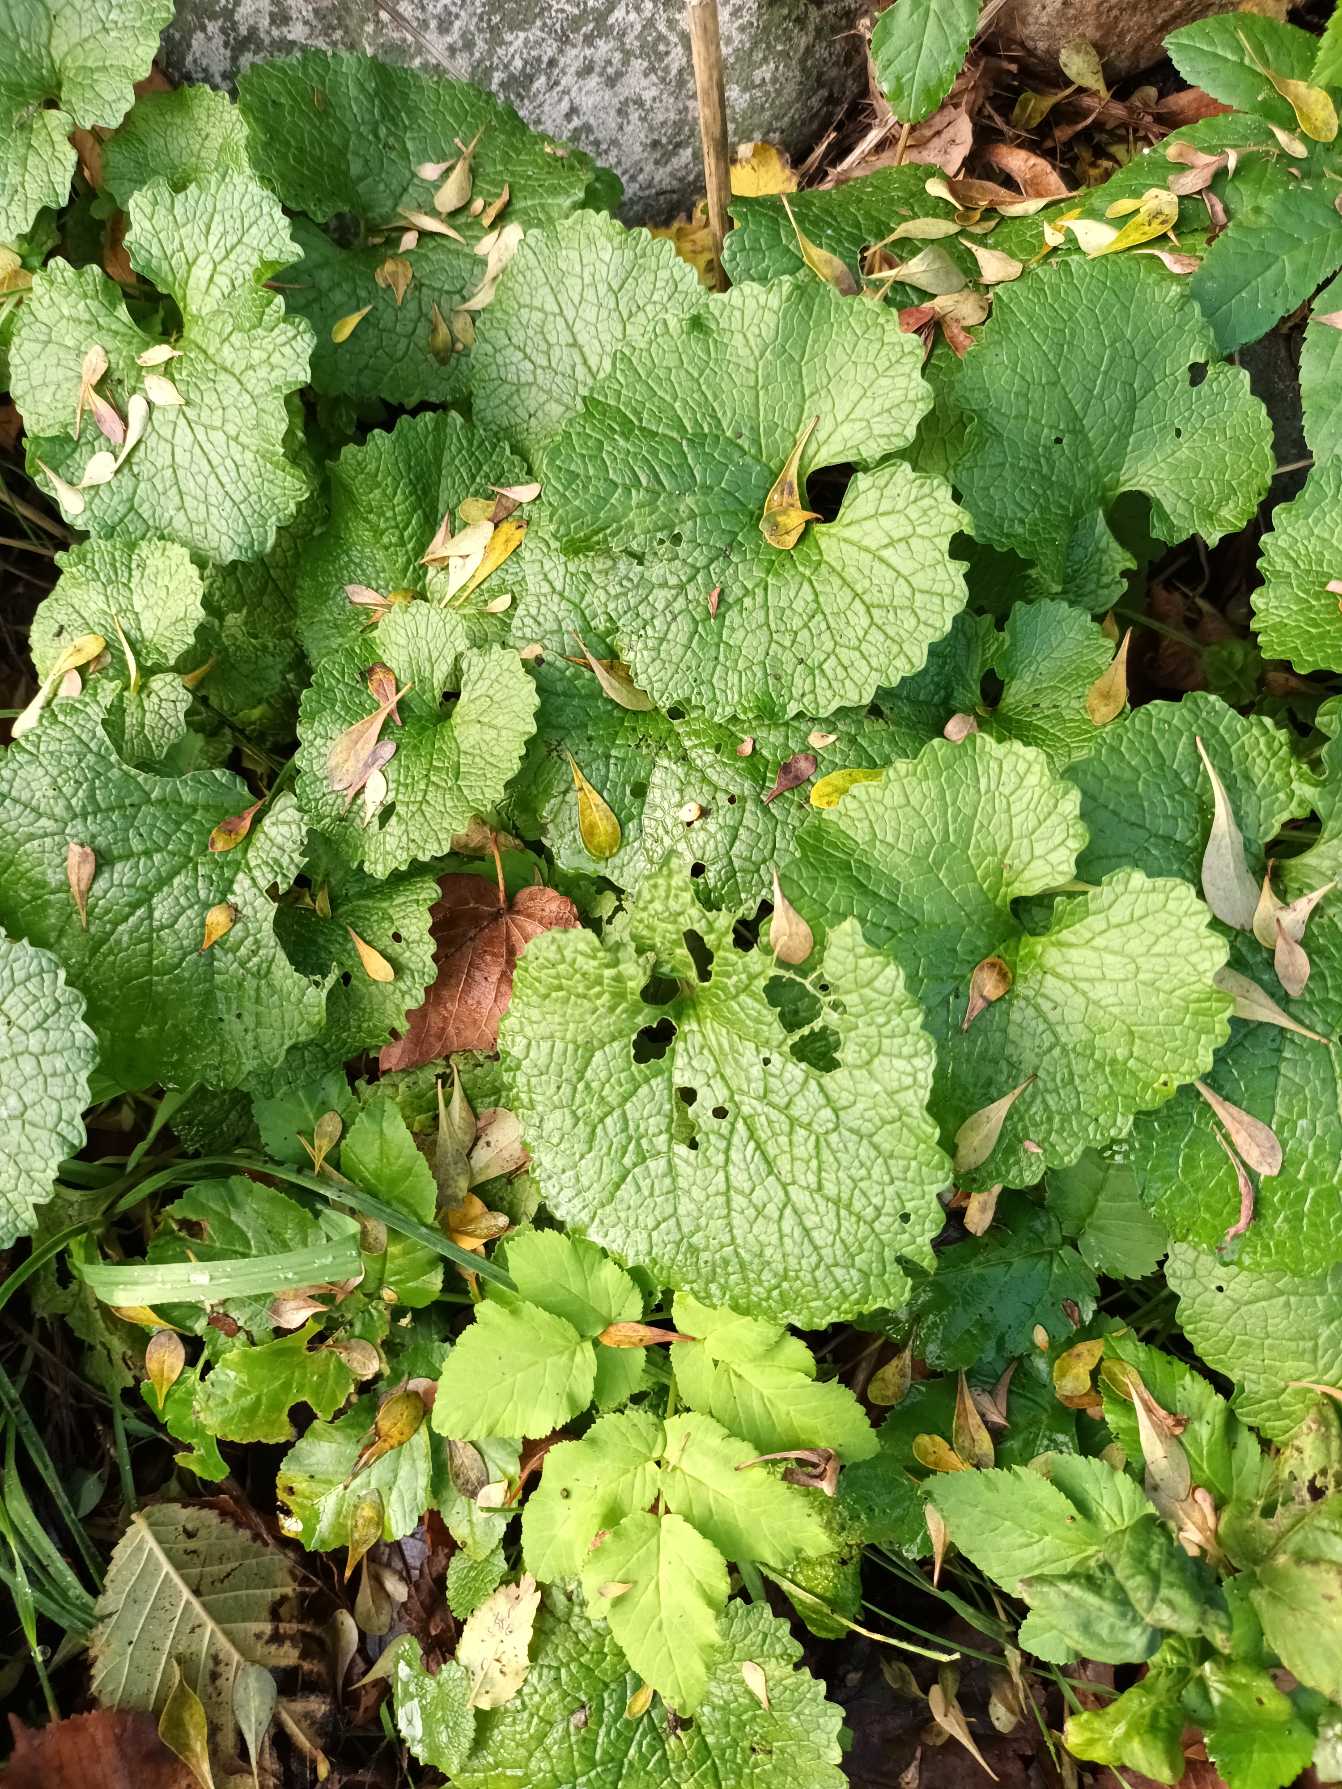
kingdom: Plantae
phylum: Tracheophyta
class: Magnoliopsida
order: Brassicales
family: Brassicaceae
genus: Alliaria
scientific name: Alliaria petiolata
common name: Løgkarse
